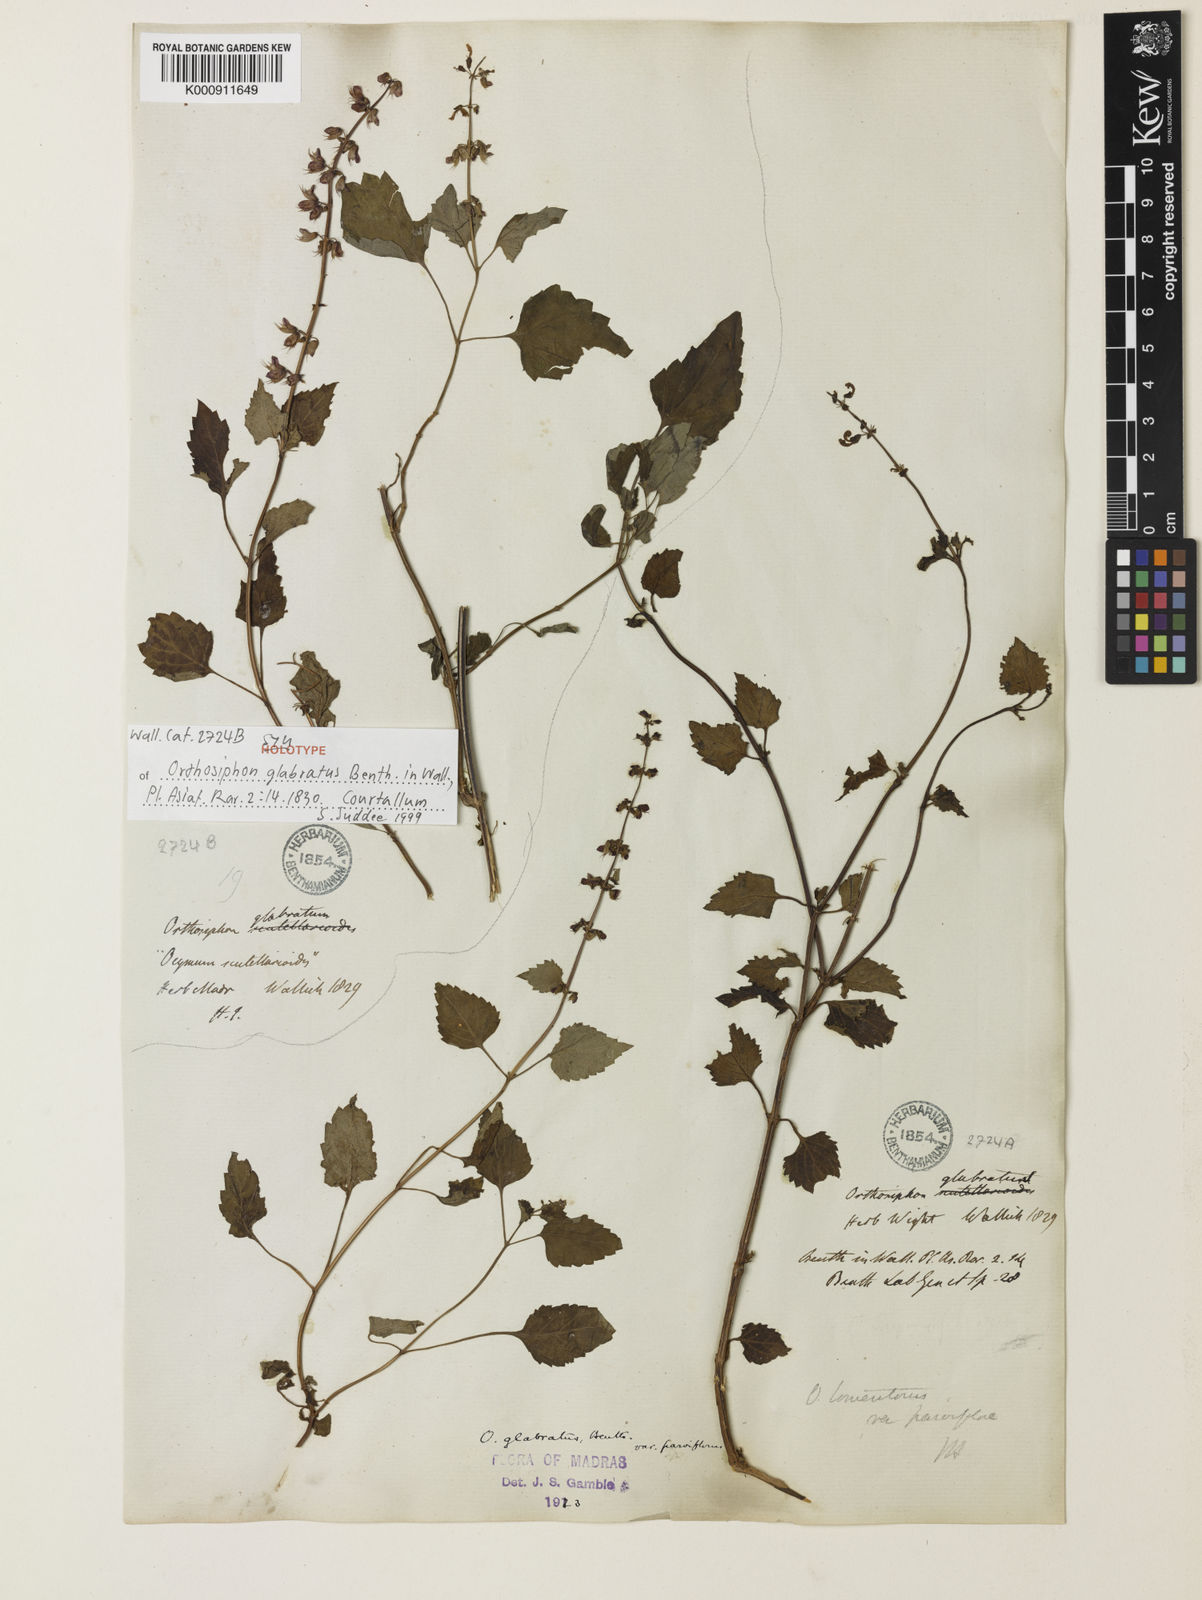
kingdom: Plantae
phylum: Tracheophyta
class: Magnoliopsida
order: Lamiales
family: Lamiaceae
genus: Orthosiphon
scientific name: Orthosiphon thymiflorus
